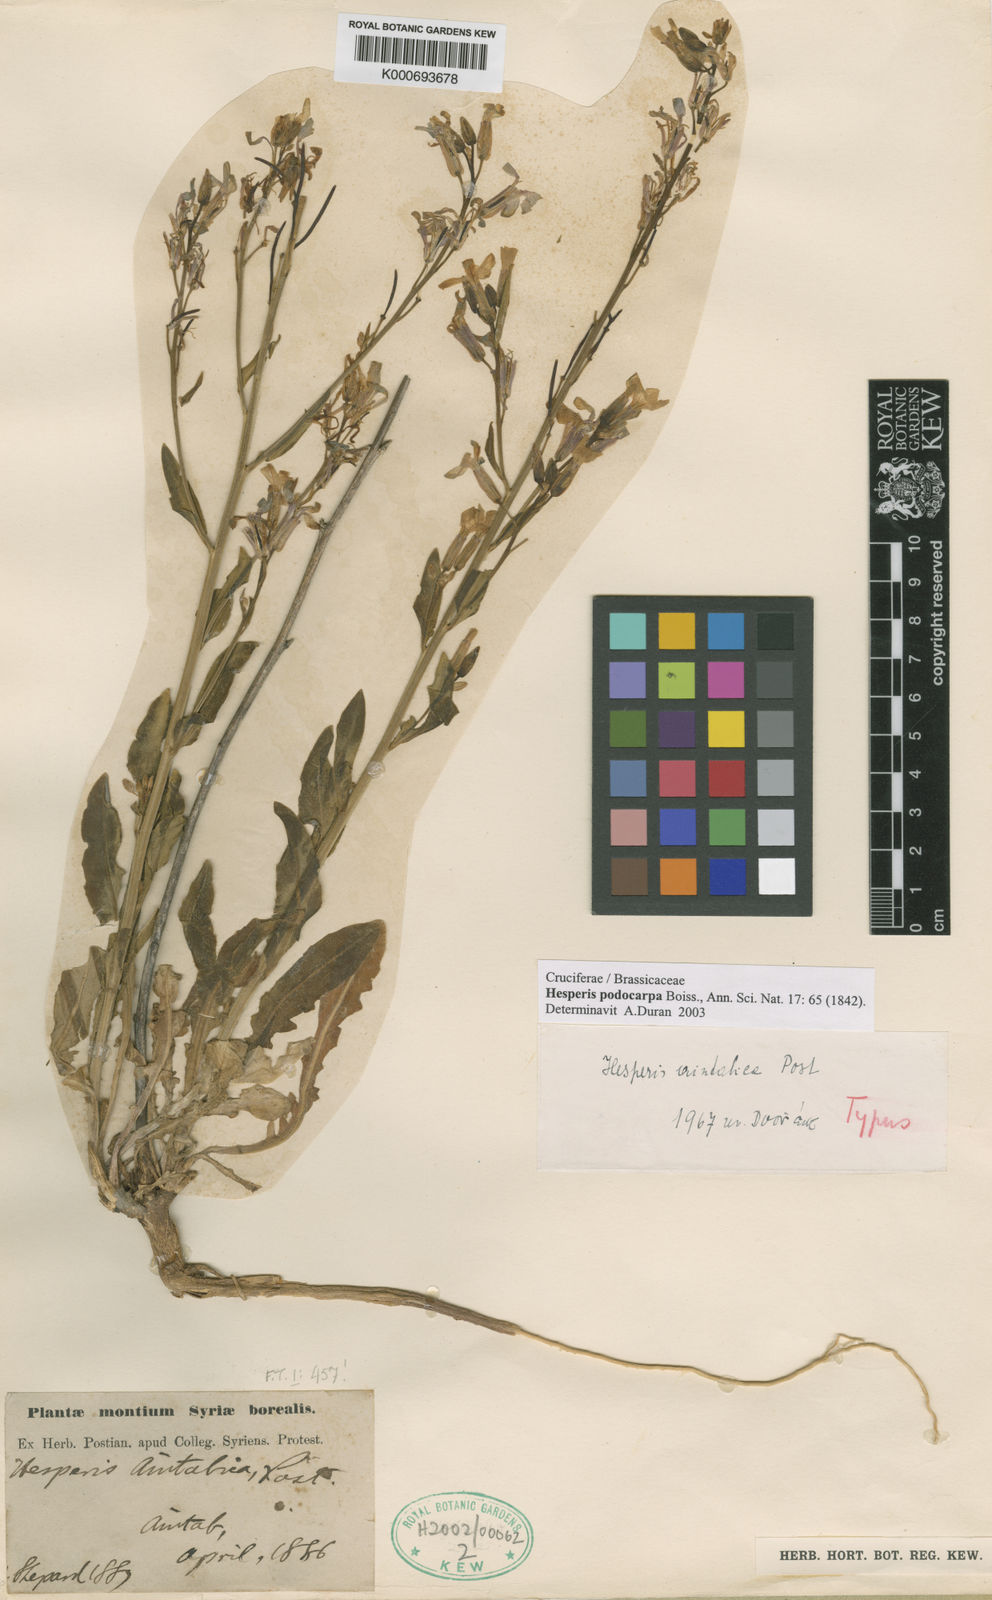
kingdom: Plantae
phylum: Tracheophyta
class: Magnoliopsida
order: Brassicales
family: Brassicaceae
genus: Hesperis
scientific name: Hesperis aintabica
